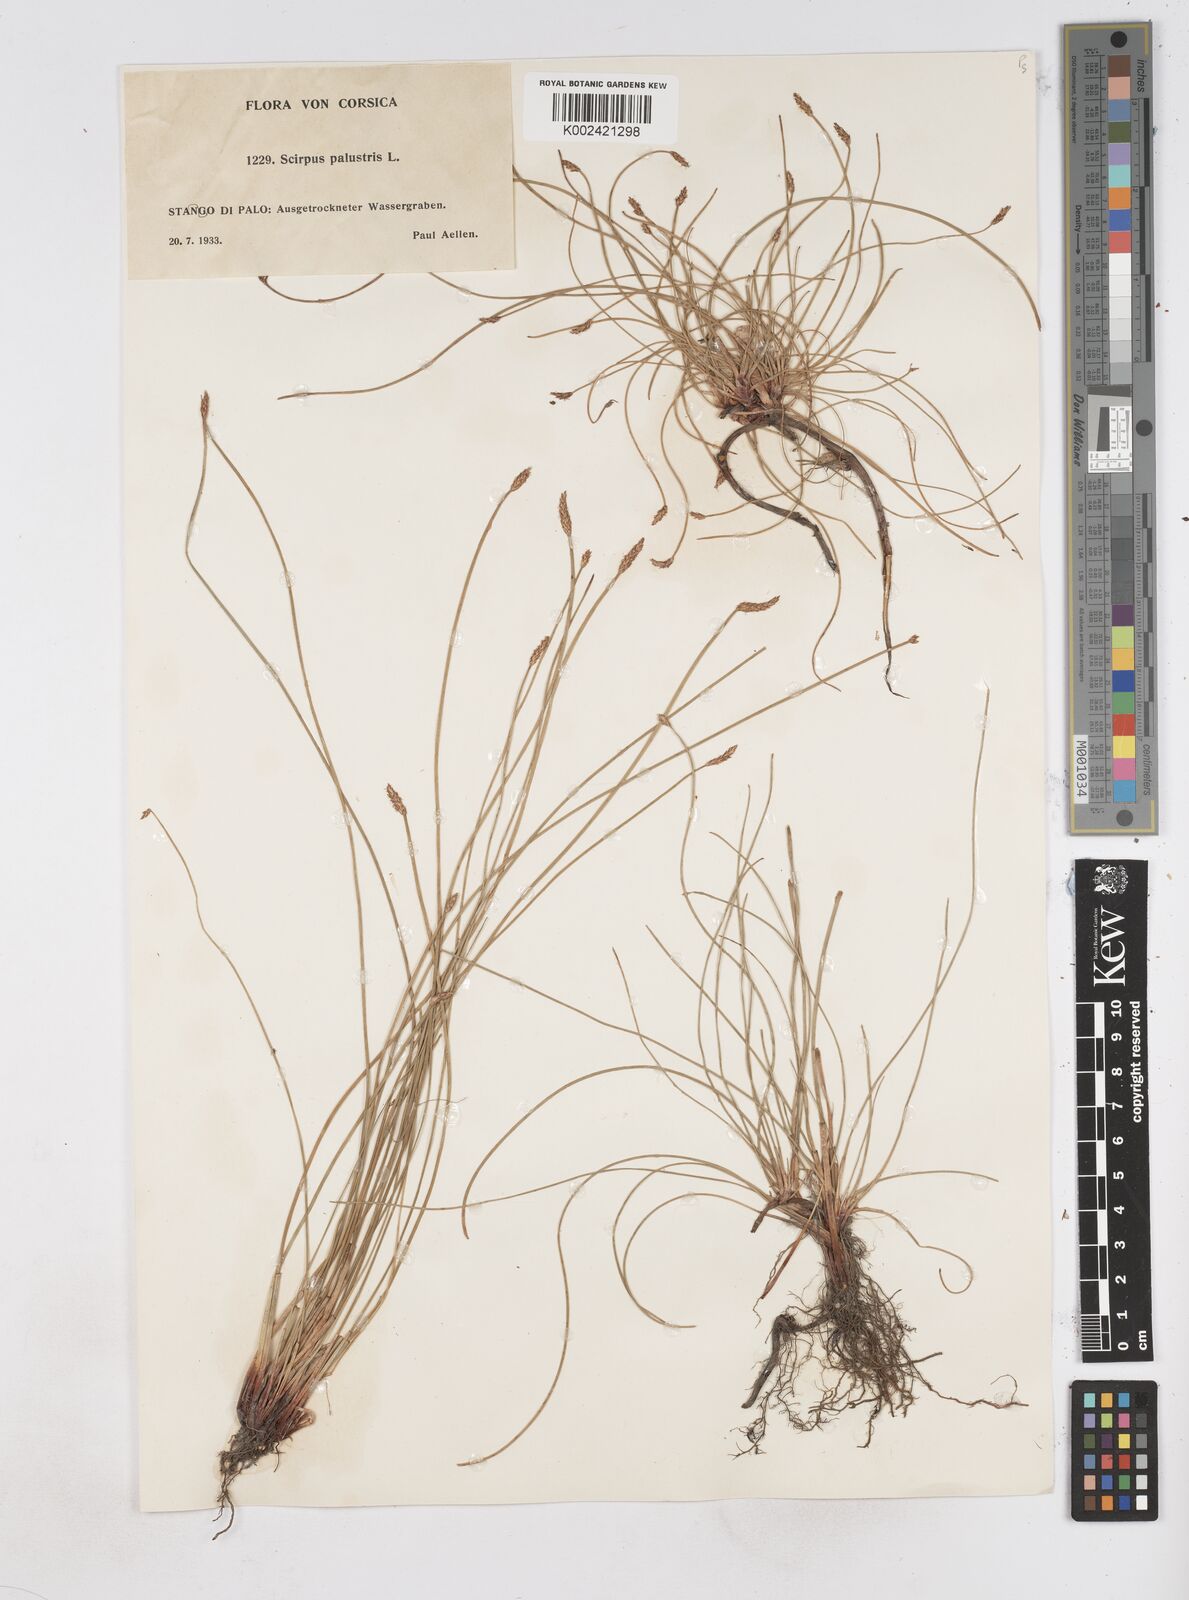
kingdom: Plantae
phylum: Tracheophyta
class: Liliopsida
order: Poales
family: Cyperaceae
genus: Eleocharis
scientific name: Eleocharis palustris
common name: Common spike-rush
